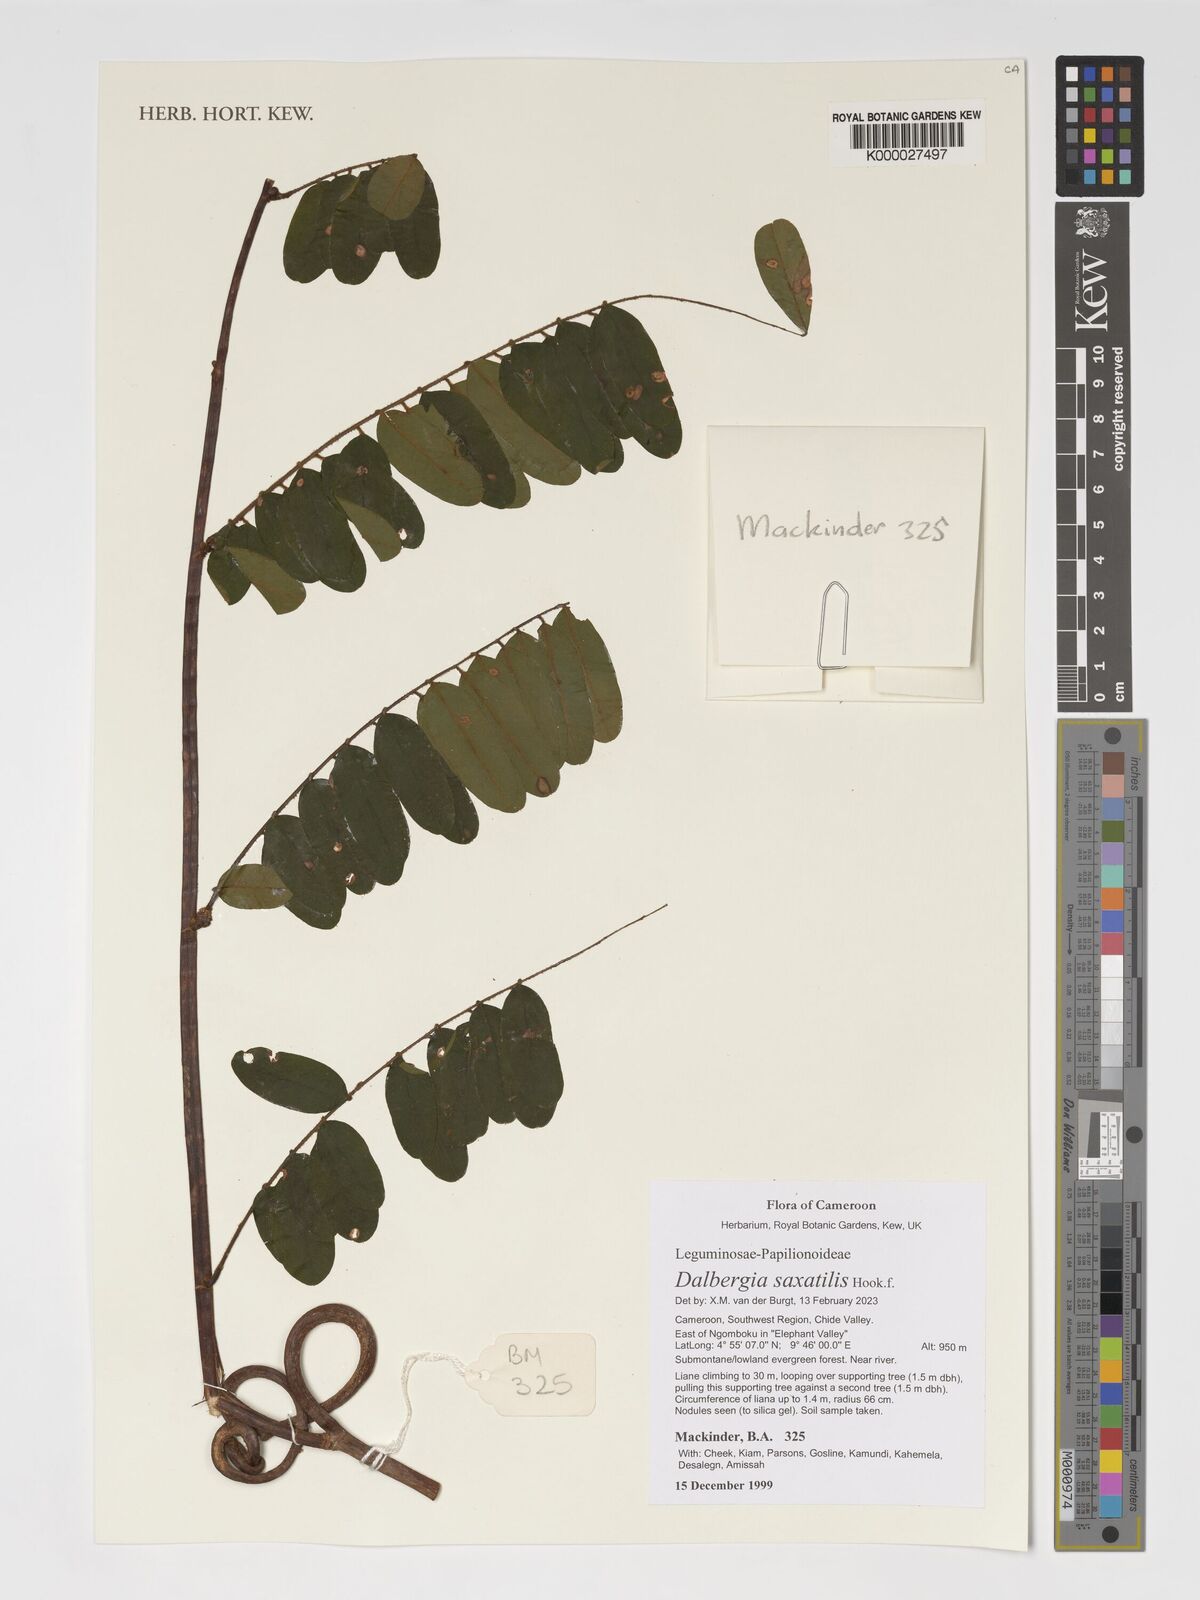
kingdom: Plantae
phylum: Tracheophyta
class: Magnoliopsida
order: Fabales
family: Fabaceae
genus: Dalbergia
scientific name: Dalbergia
